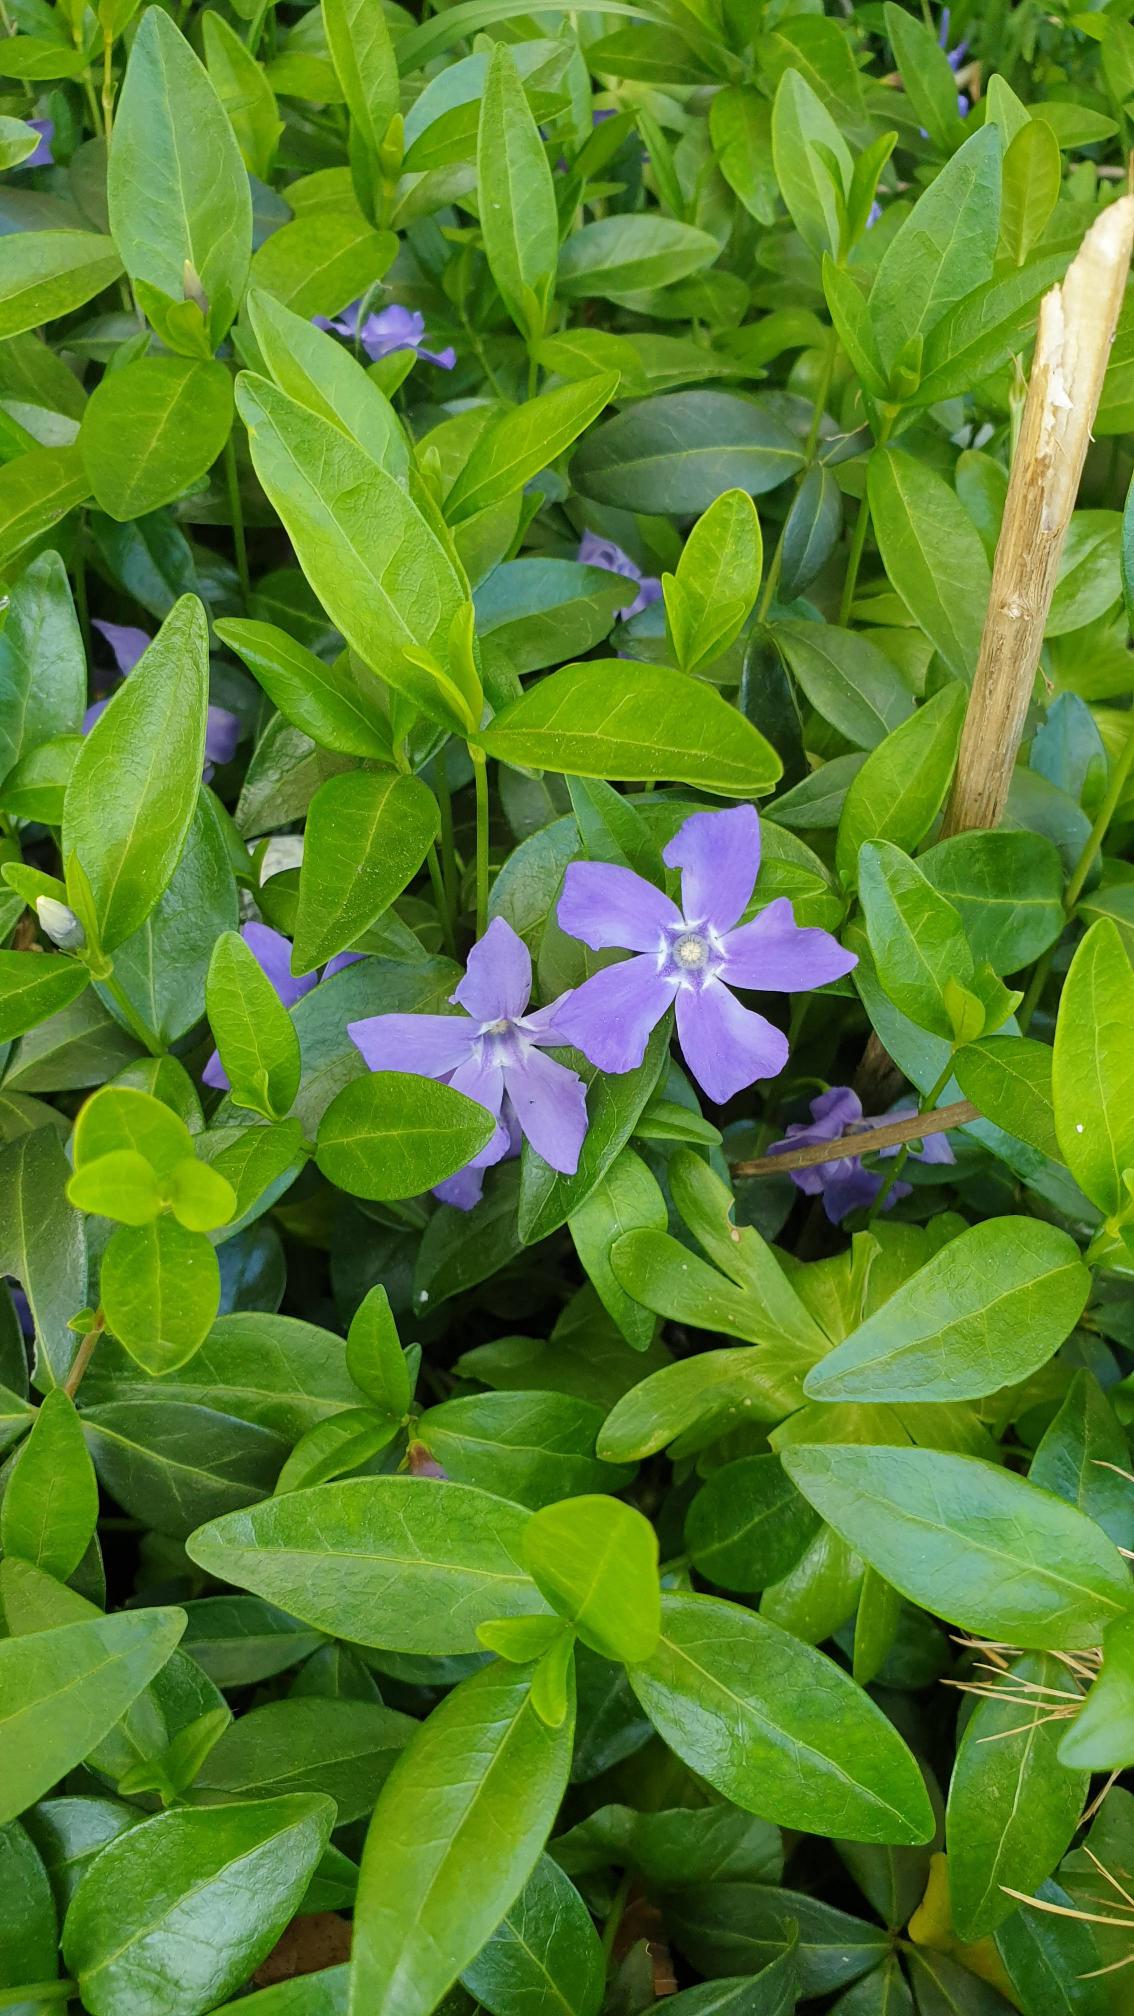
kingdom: Plantae
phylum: Tracheophyta
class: Magnoliopsida
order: Gentianales
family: Apocynaceae
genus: Vinca
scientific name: Vinca minor
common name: Liden singrøn
